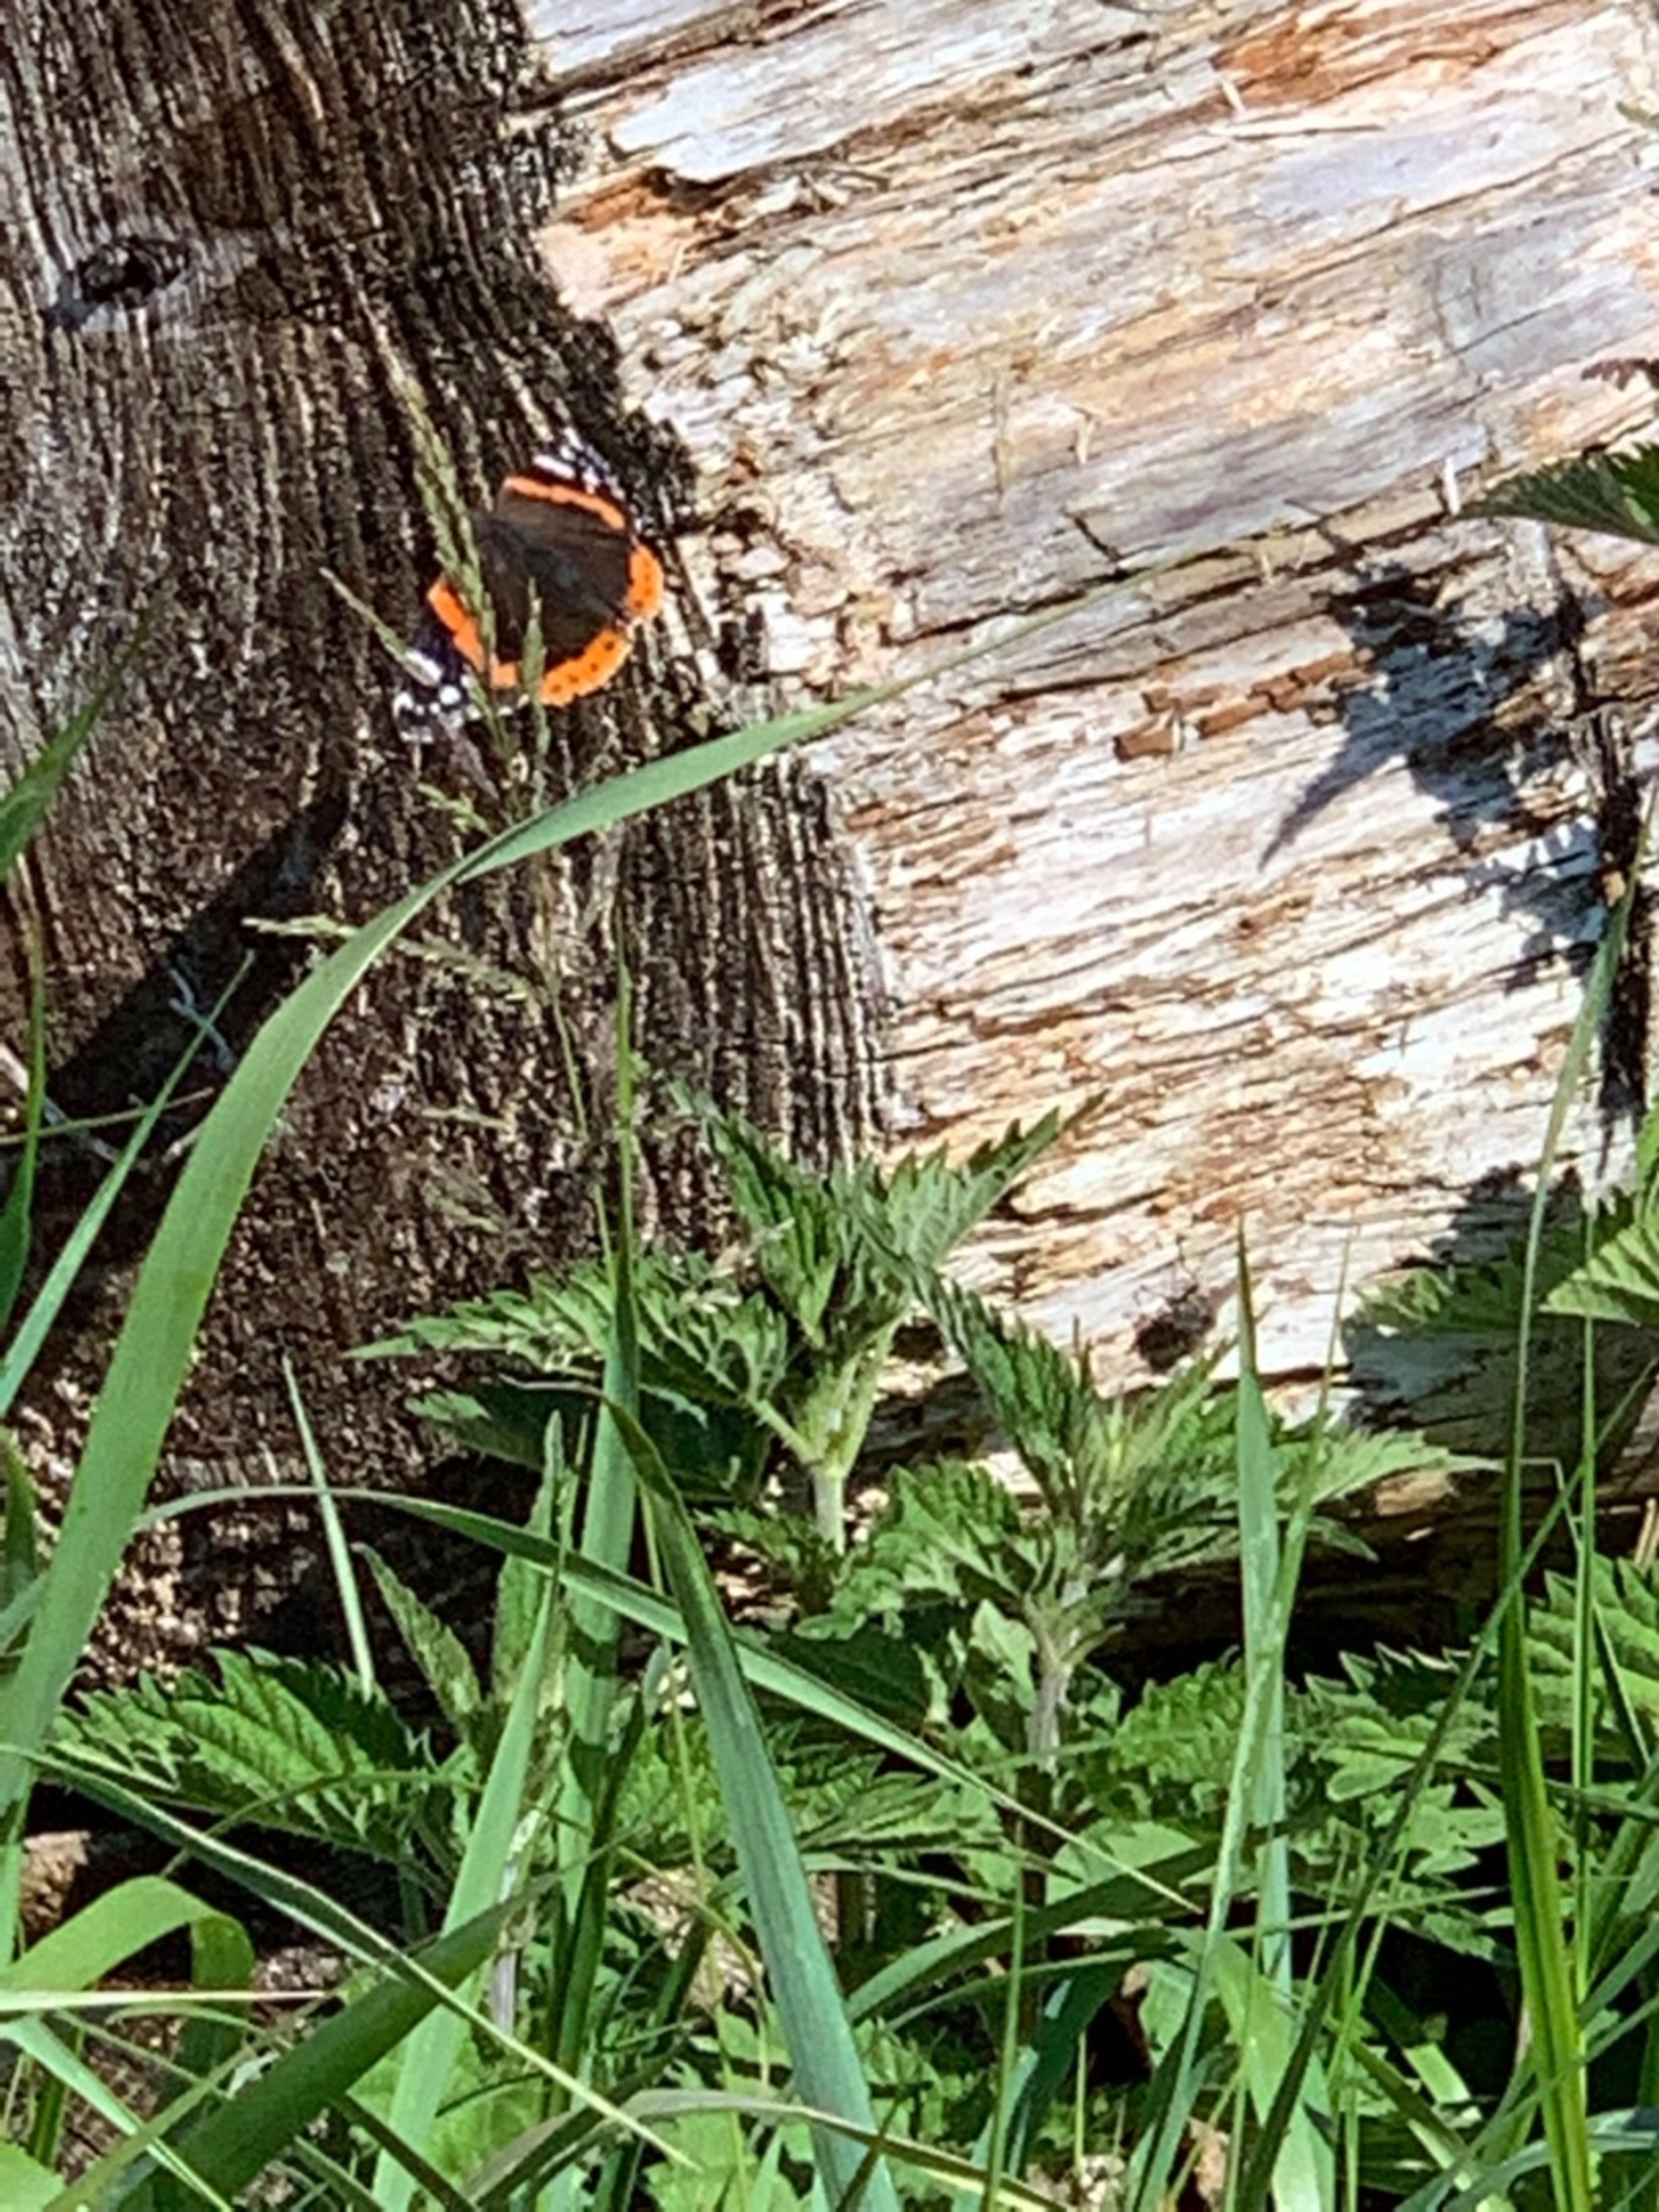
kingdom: Animalia
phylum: Arthropoda
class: Insecta
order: Lepidoptera
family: Nymphalidae
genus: Vanessa
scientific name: Vanessa atalanta
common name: Admiral
